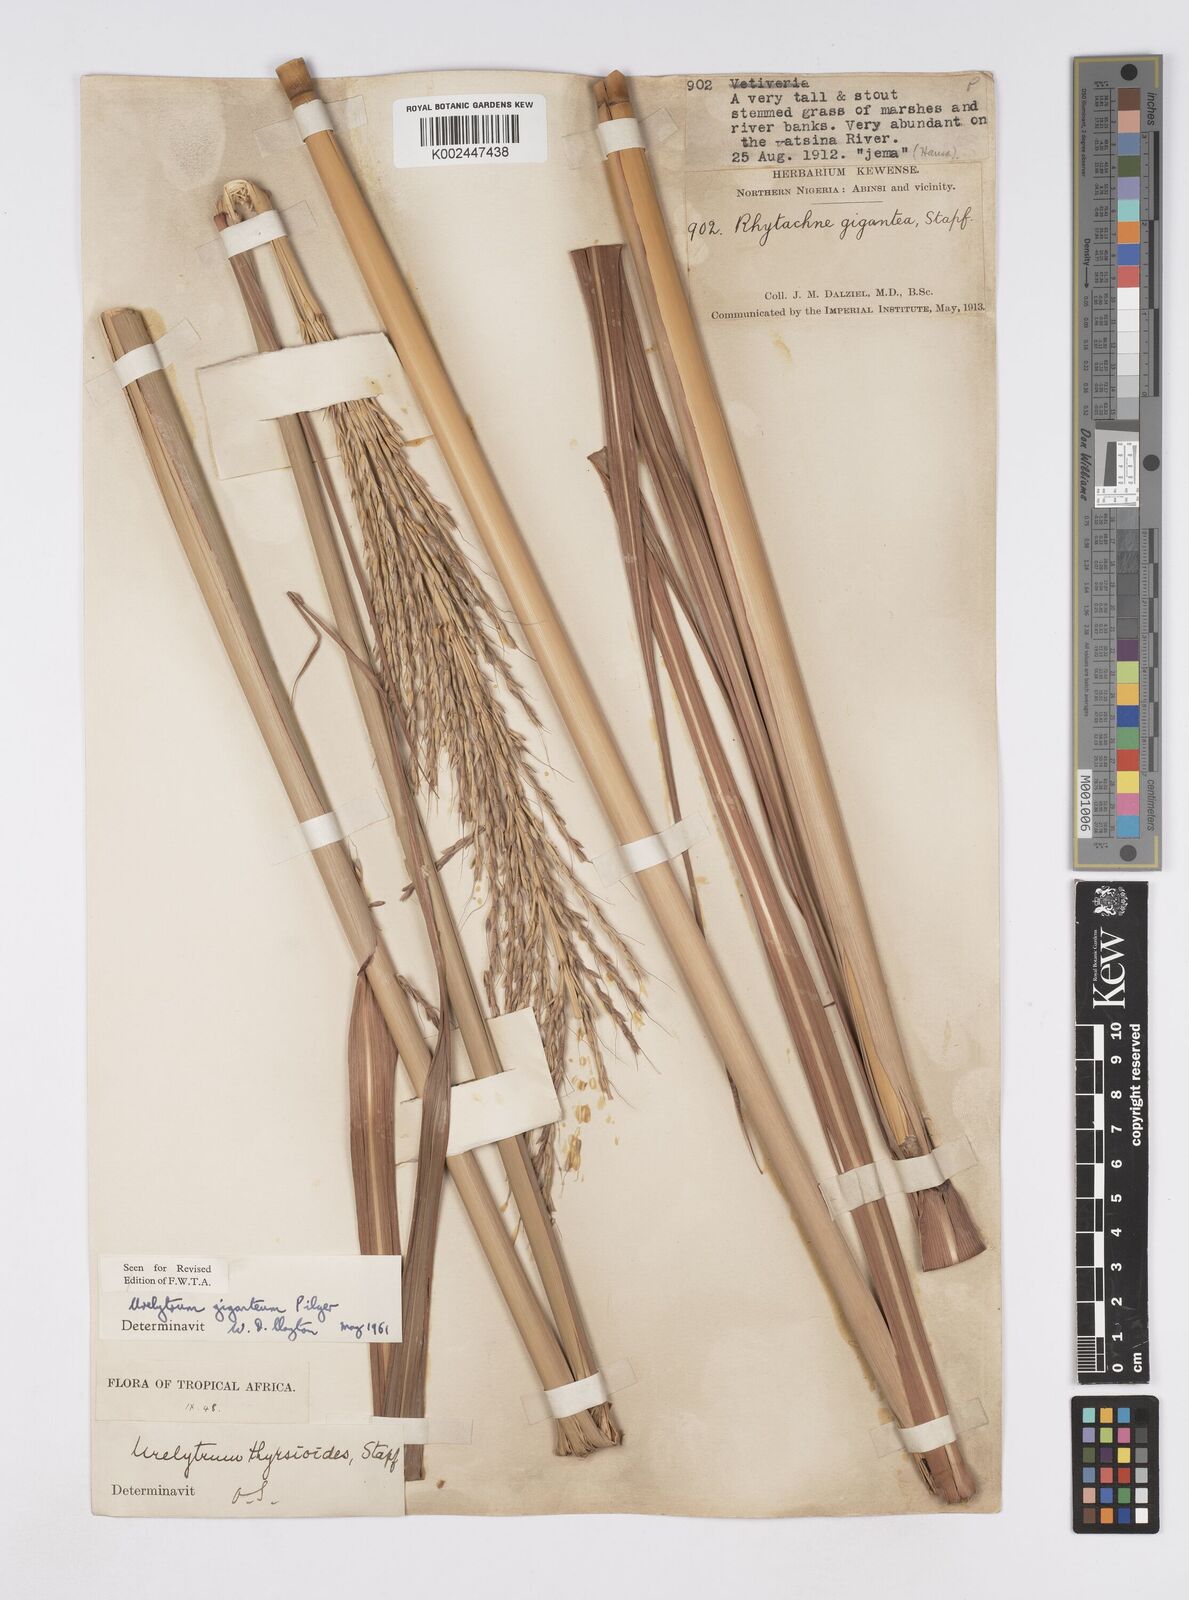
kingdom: Plantae
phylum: Tracheophyta
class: Liliopsida
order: Poales
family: Poaceae
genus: Urelytrum
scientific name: Urelytrum giganteum
